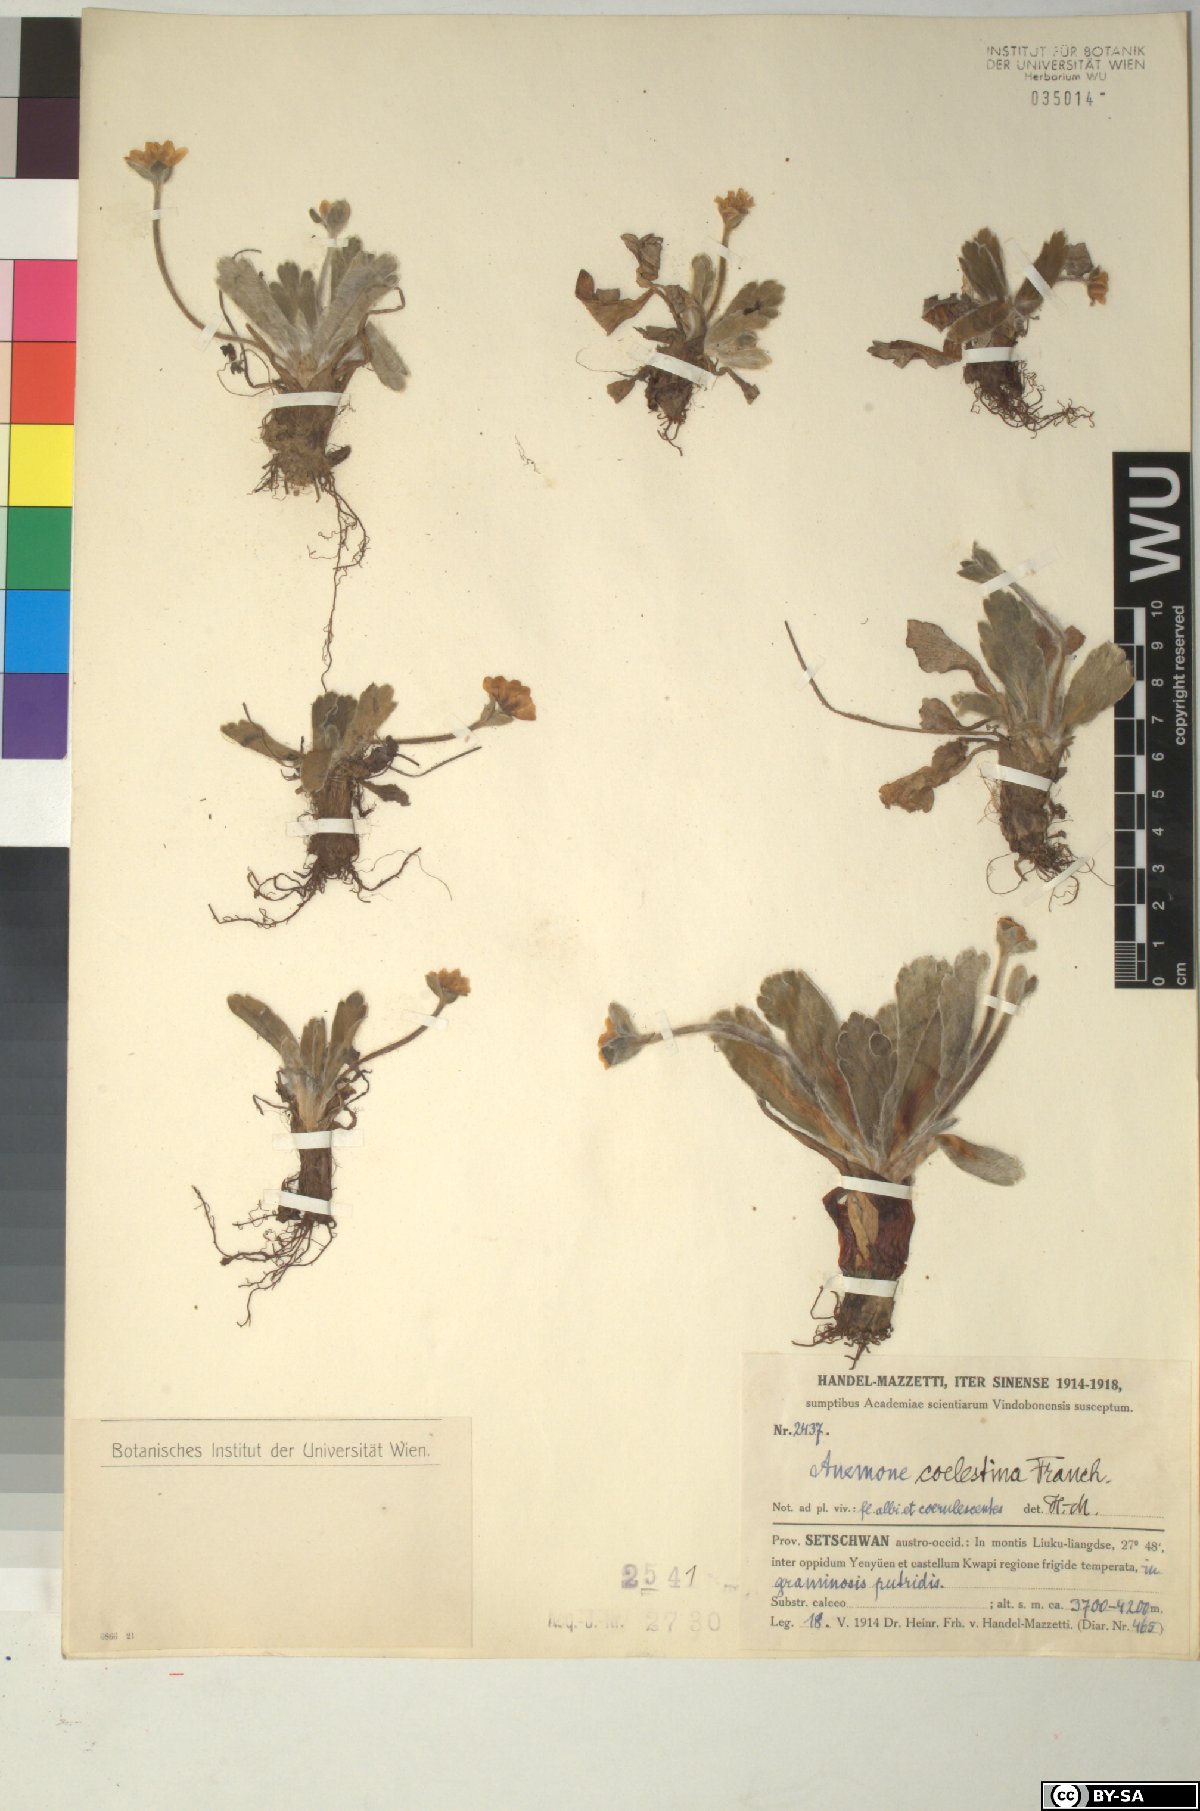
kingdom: Plantae
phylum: Tracheophyta
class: Magnoliopsida
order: Ranunculales
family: Ranunculaceae
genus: Anemonastrum
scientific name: Anemonastrum coelestinum
